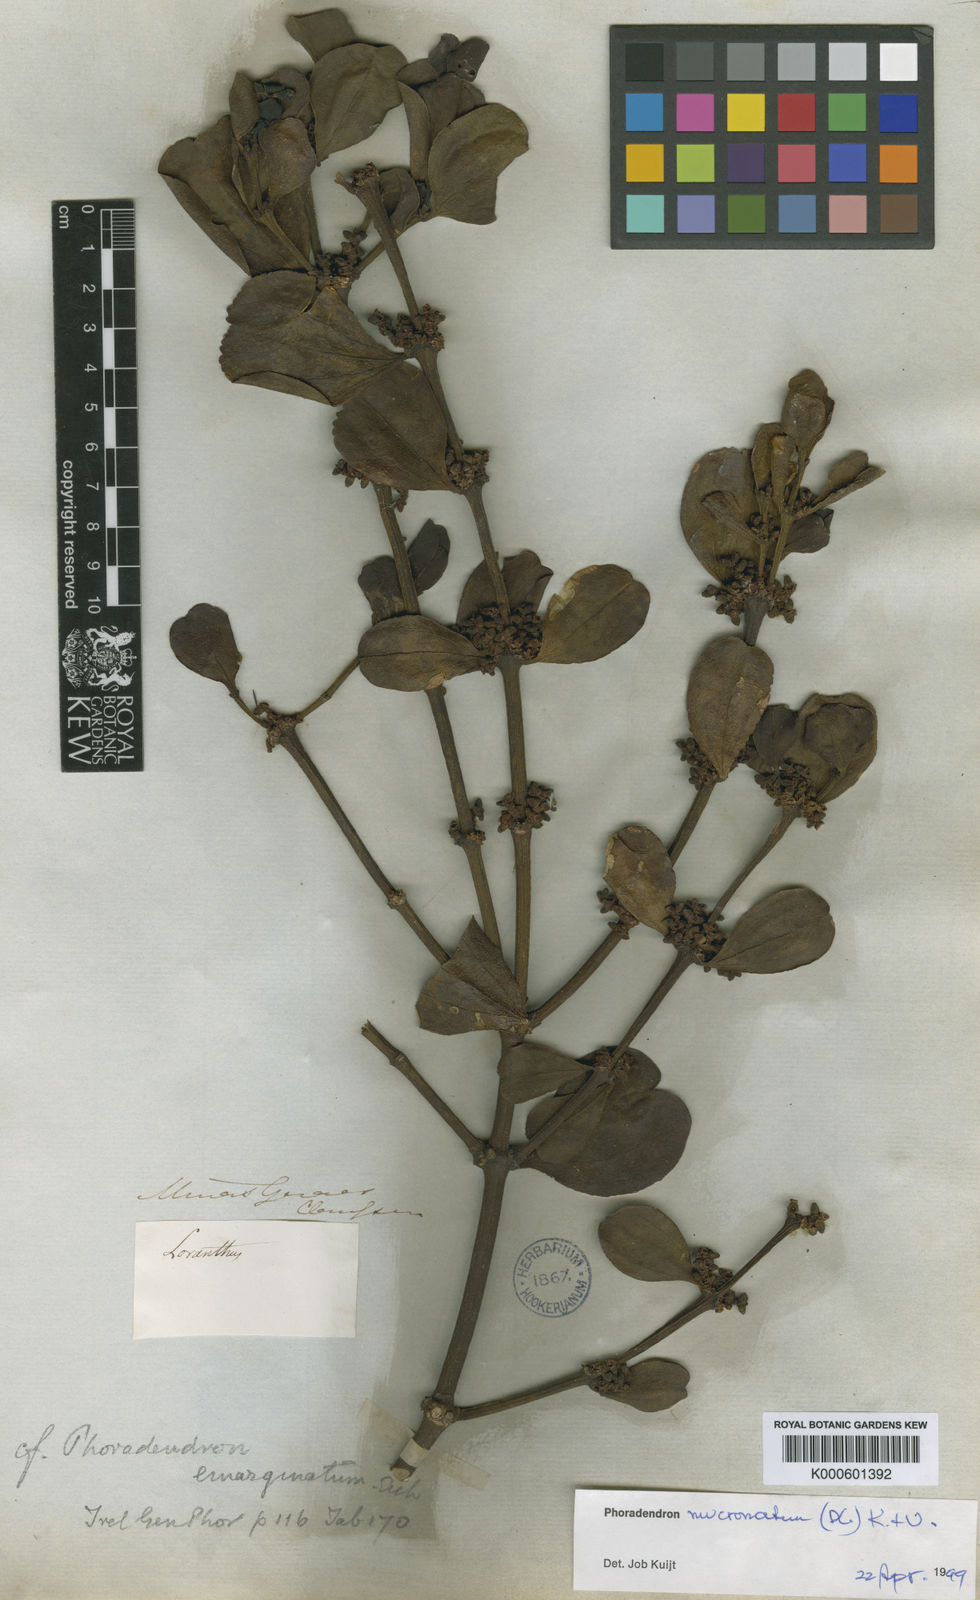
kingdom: Plantae
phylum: Tracheophyta
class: Magnoliopsida
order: Santalales
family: Viscaceae
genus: Phoradendron
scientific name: Phoradendron mucronatum
